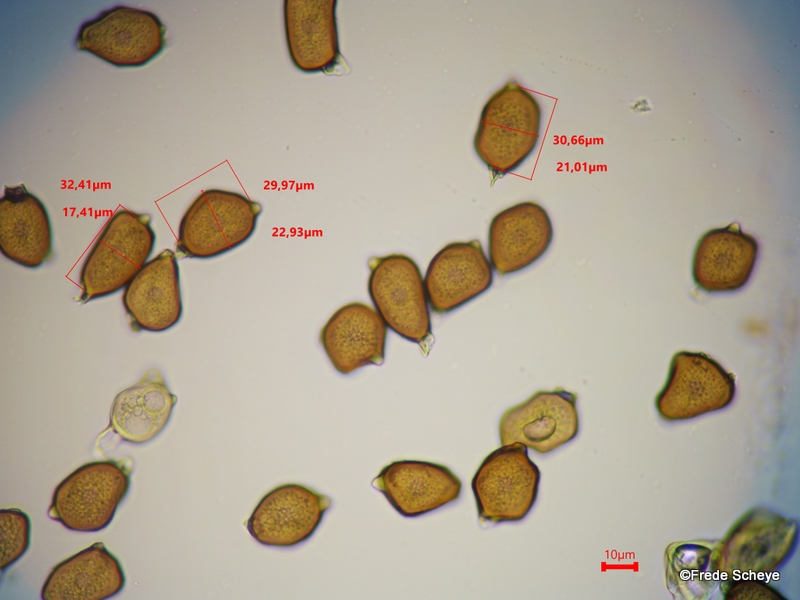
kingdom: Fungi
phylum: Basidiomycota
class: Pucciniomycetes
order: Pucciniales
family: Pucciniaceae
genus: Uromyces
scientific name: Uromyces ficariae
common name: vorterod-encellerust
